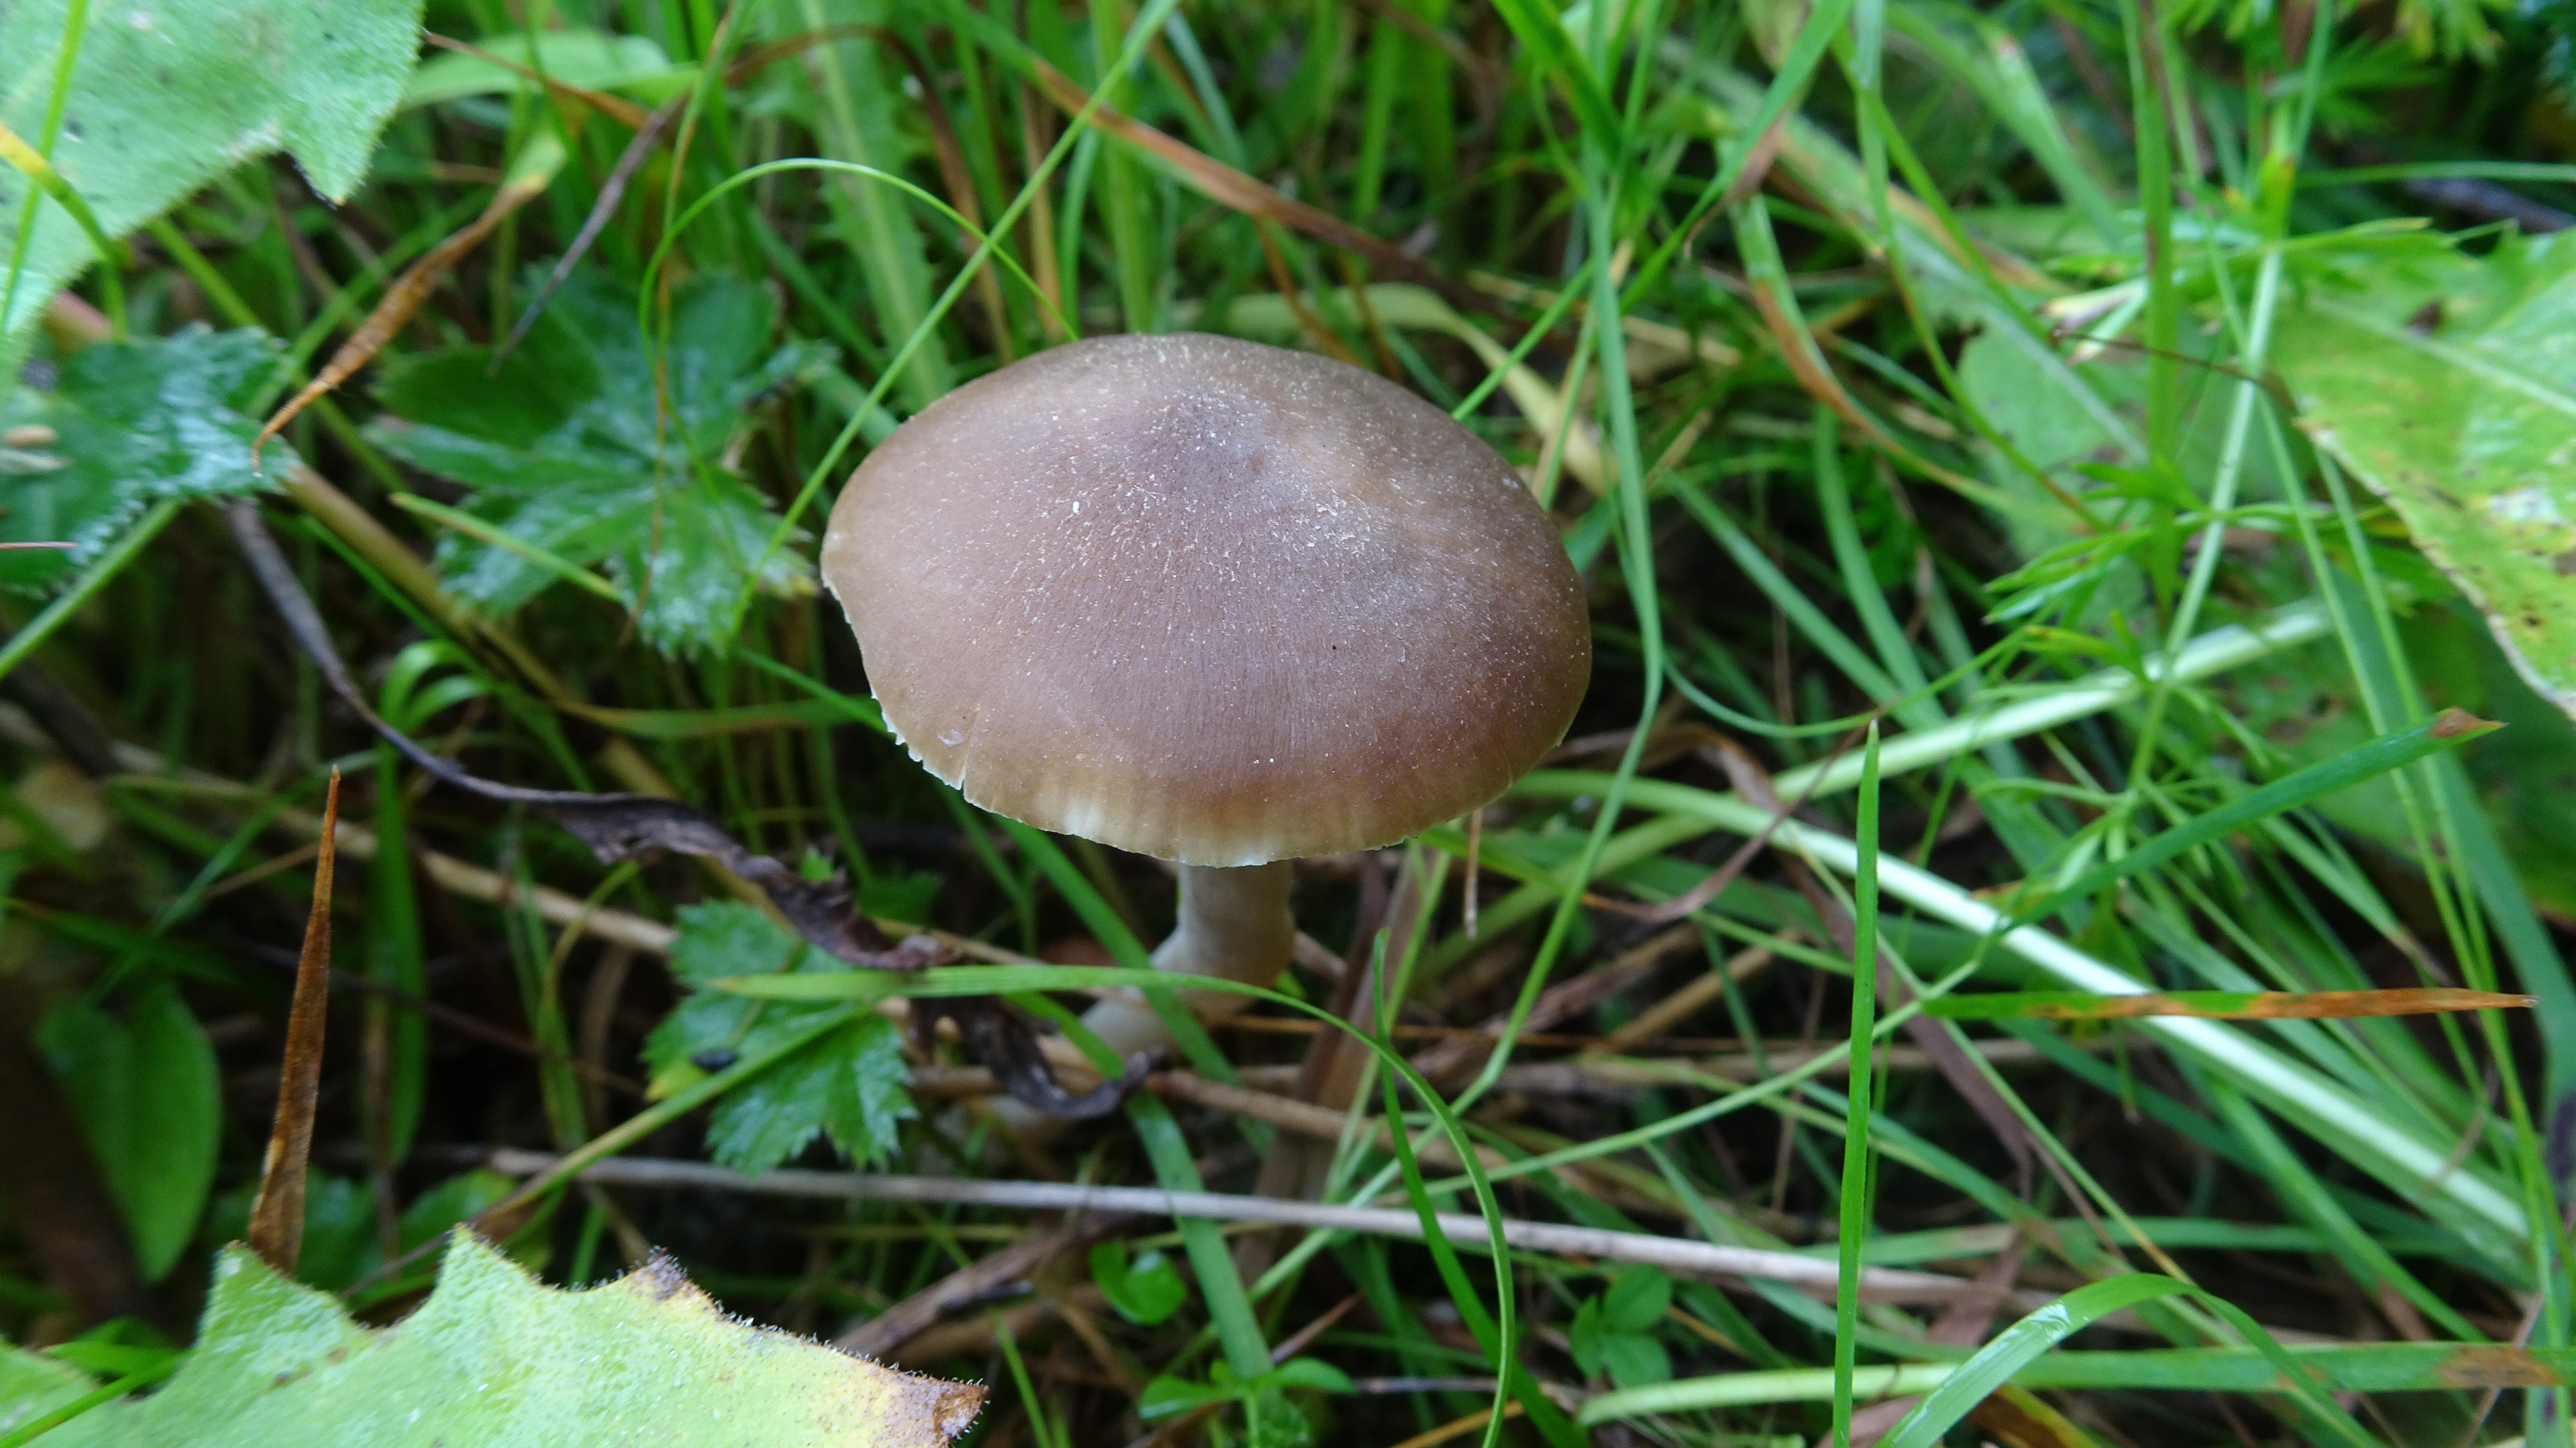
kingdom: Fungi
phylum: Basidiomycota
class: Agaricomycetes
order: Agaricales
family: Hygrophoraceae
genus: Neohygrocybe
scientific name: Neohygrocybe nitrata
